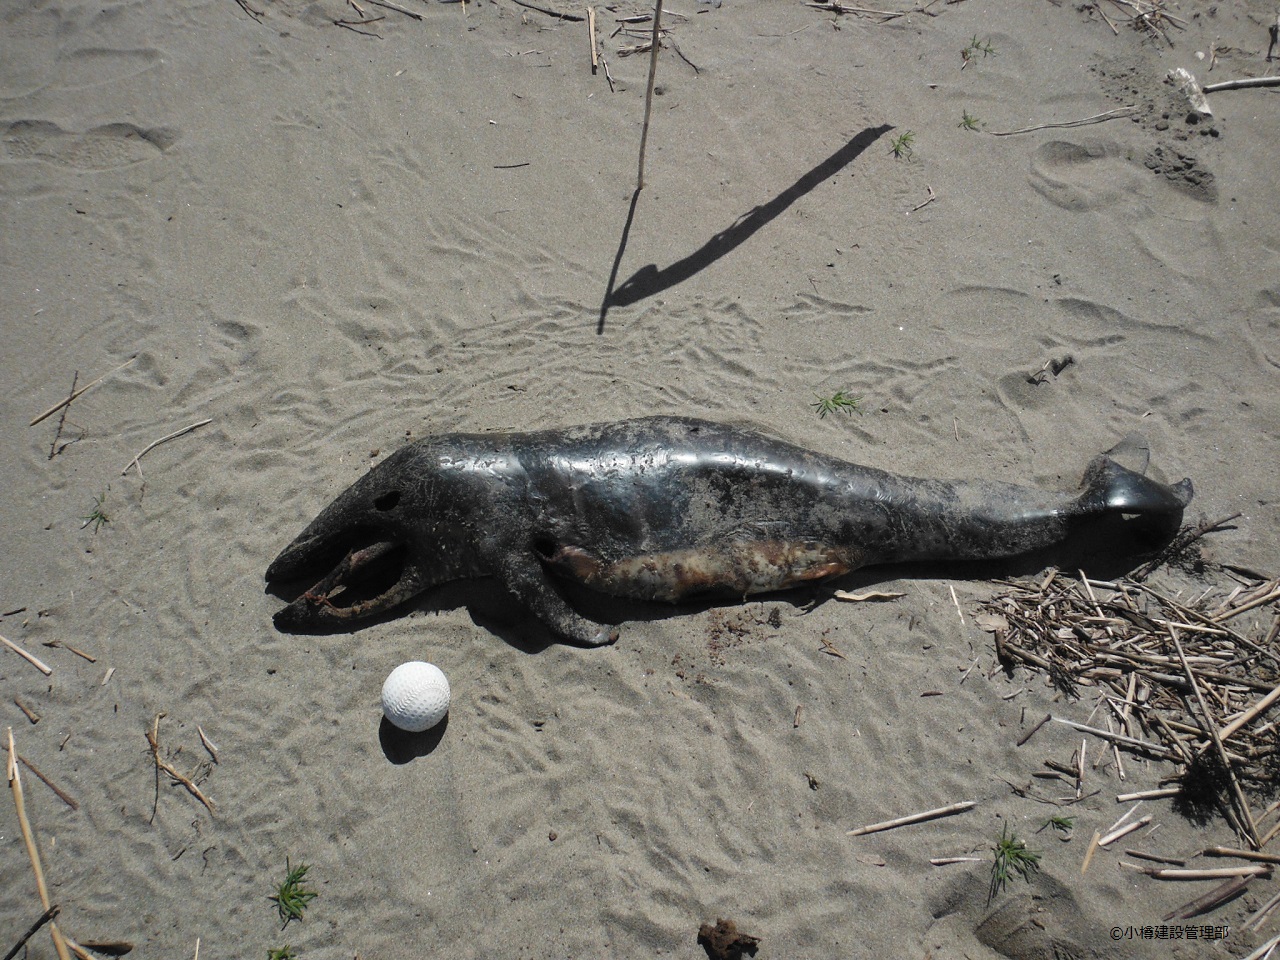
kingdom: Animalia
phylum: Chordata
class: Mammalia
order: Cetacea
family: Phocoenidae
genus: Phocoenoides
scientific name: Phocoenoides dalli
